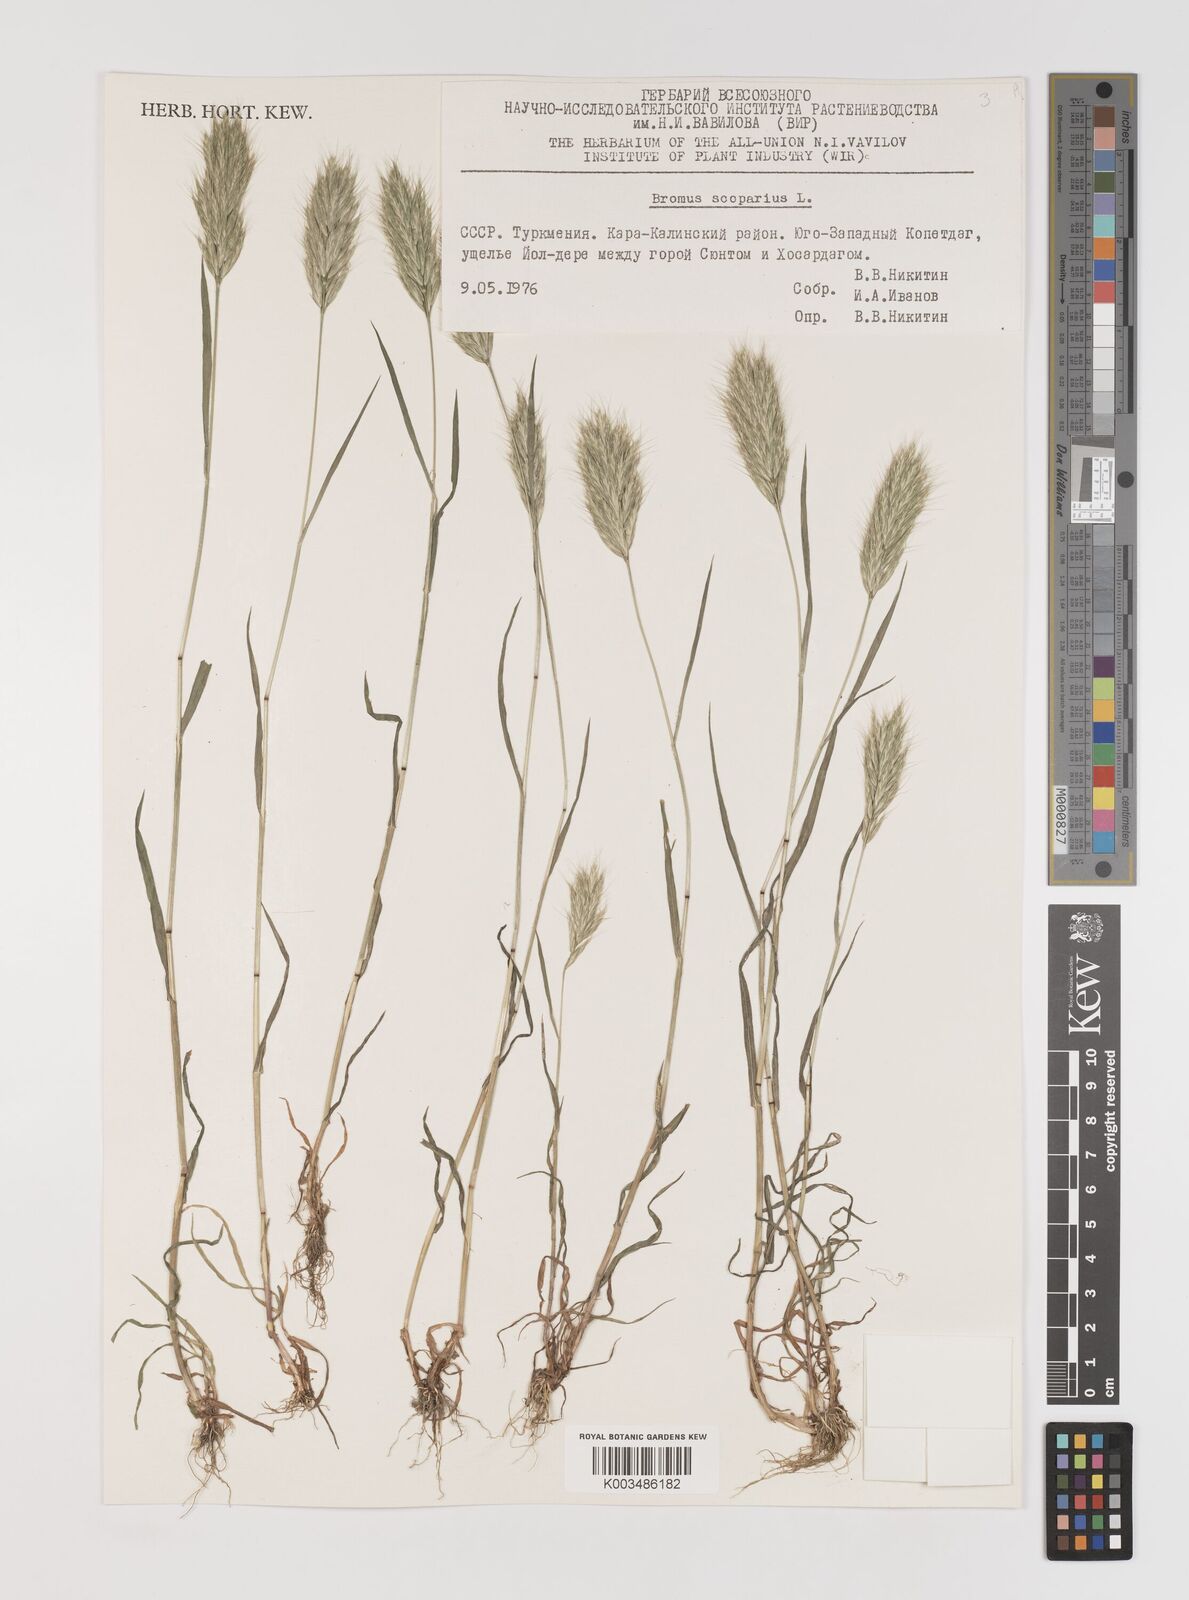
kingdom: Plantae
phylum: Tracheophyta
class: Liliopsida
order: Poales
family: Poaceae
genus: Bromus
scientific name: Bromus scoparius
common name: Broom brome
